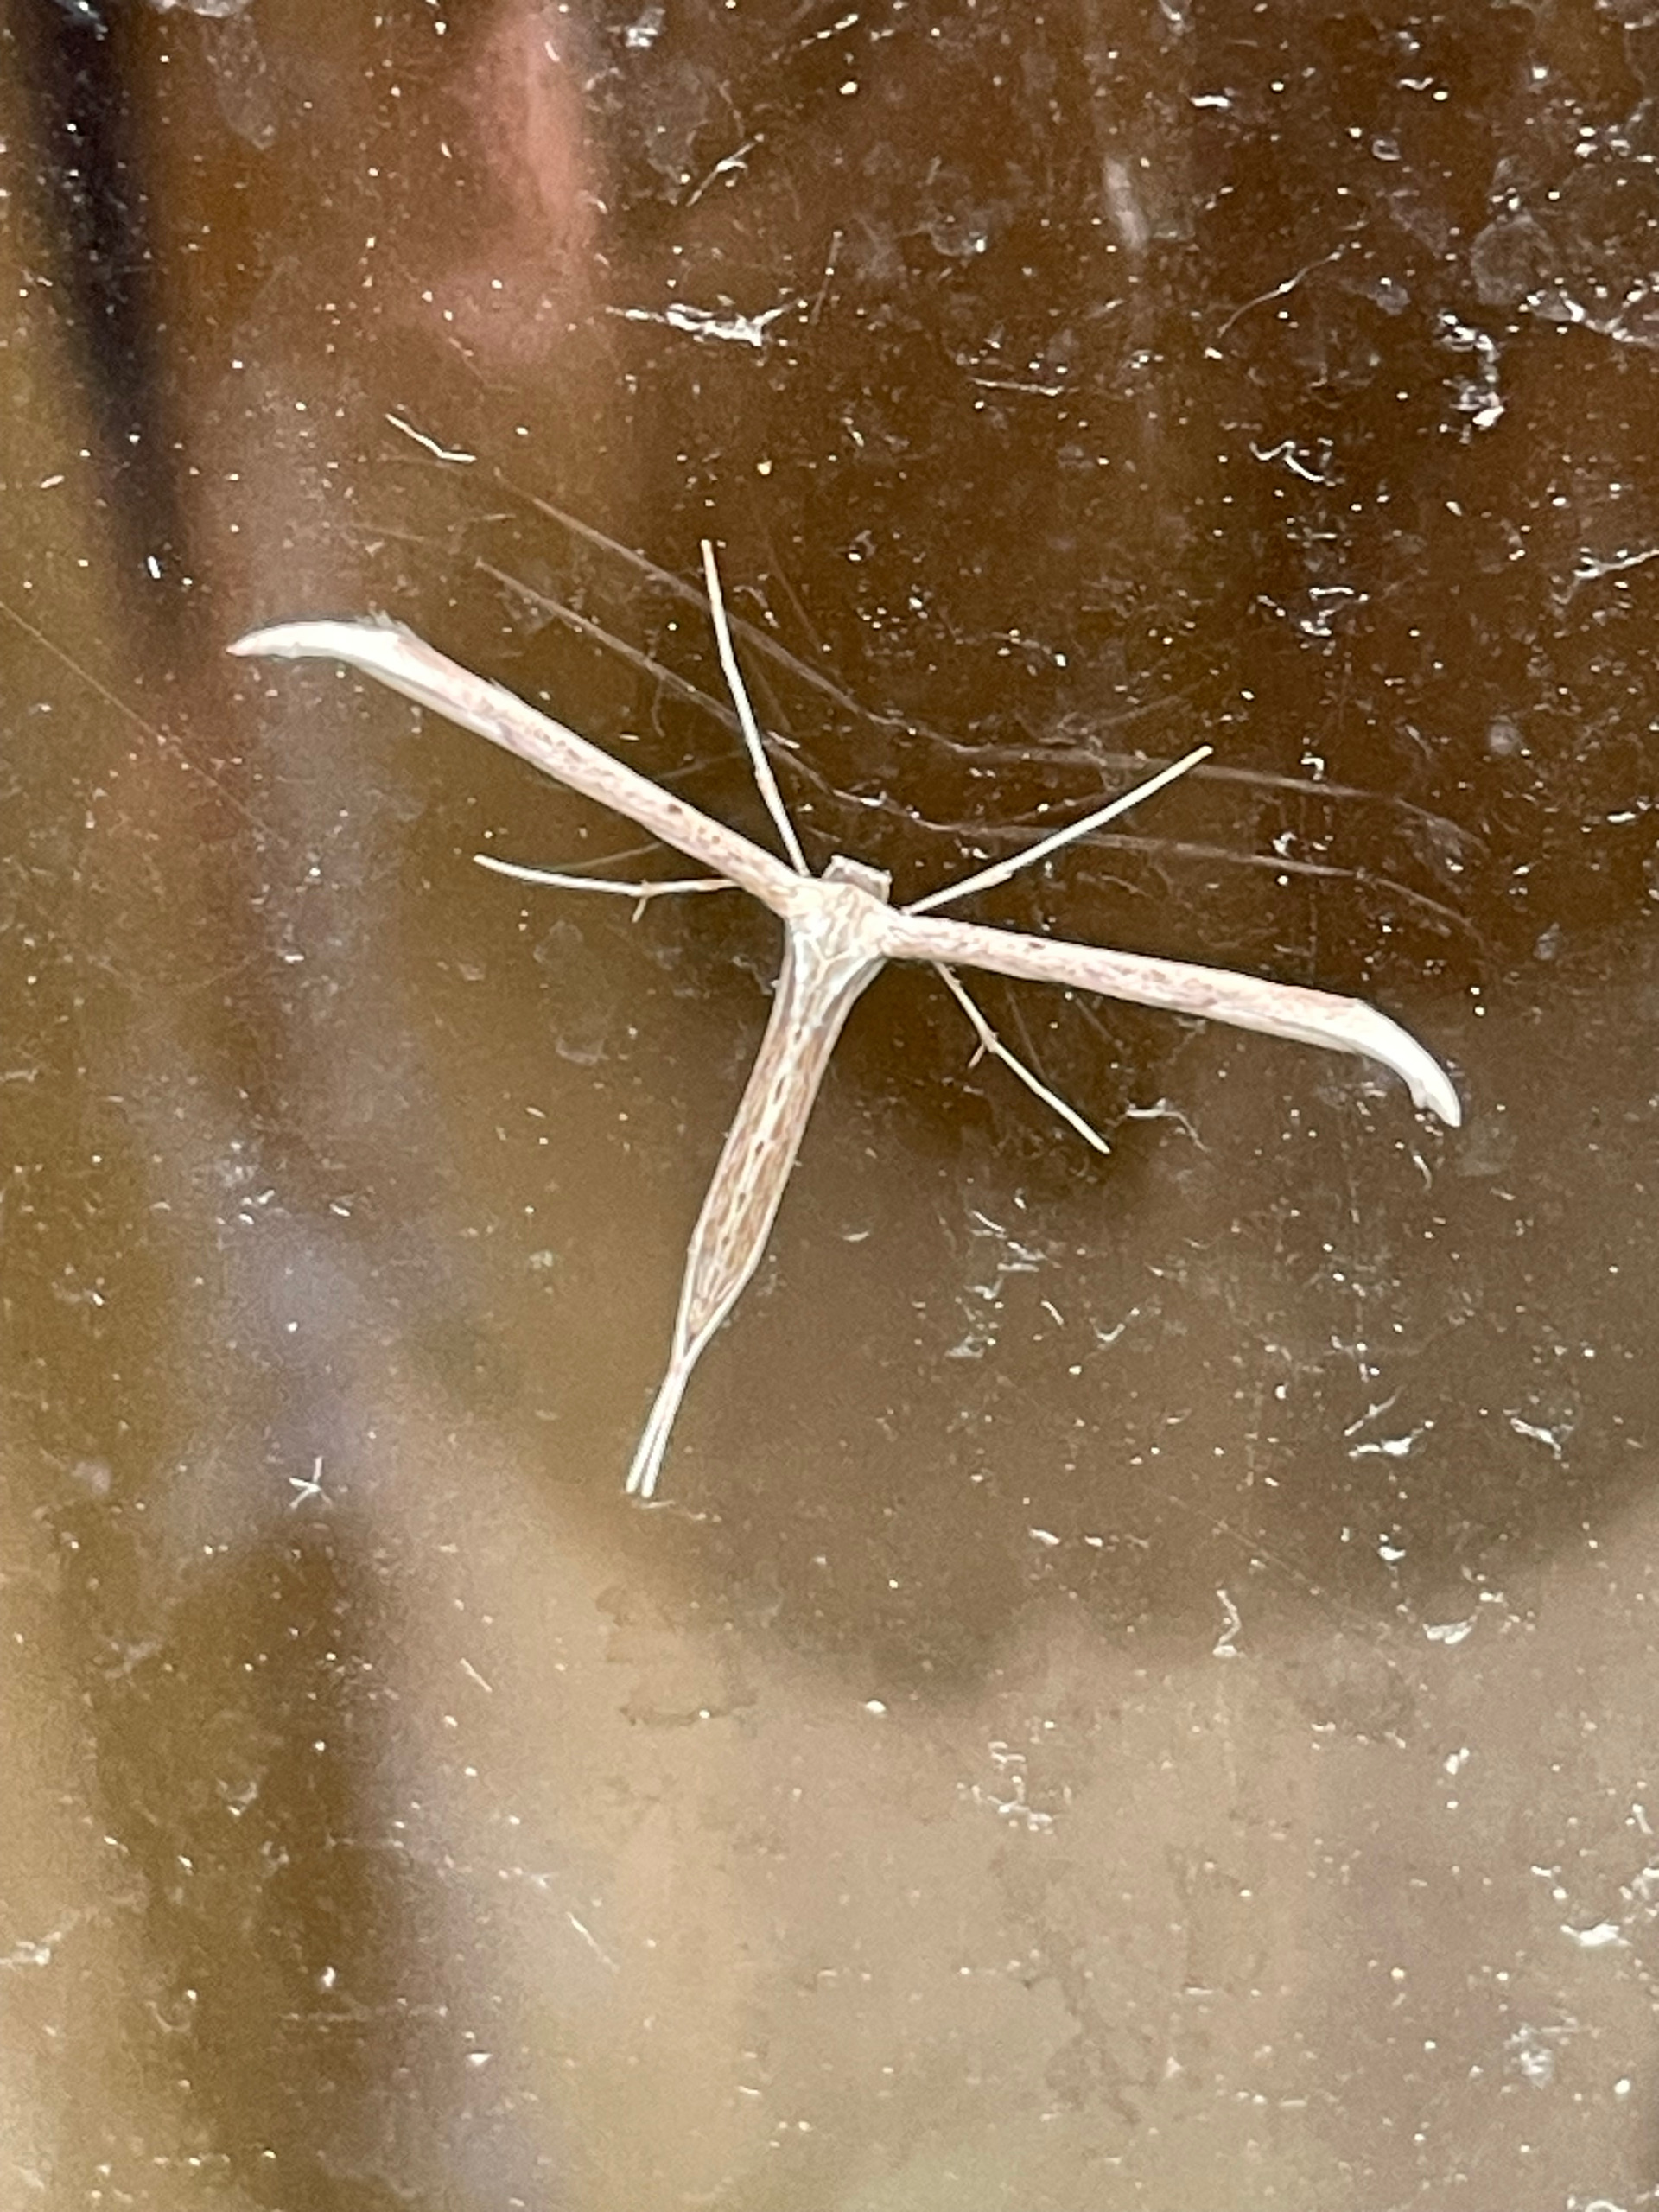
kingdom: Animalia
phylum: Arthropoda
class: Insecta
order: Lepidoptera
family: Pterophoridae
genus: Emmelina
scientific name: Emmelina monodactyla
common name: Snerlefjermøl
